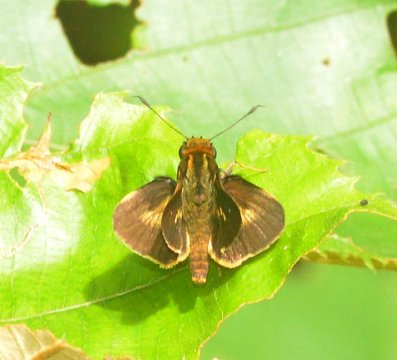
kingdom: Animalia
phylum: Arthropoda
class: Insecta
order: Lepidoptera
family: Hesperiidae
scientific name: Hesperiidae
